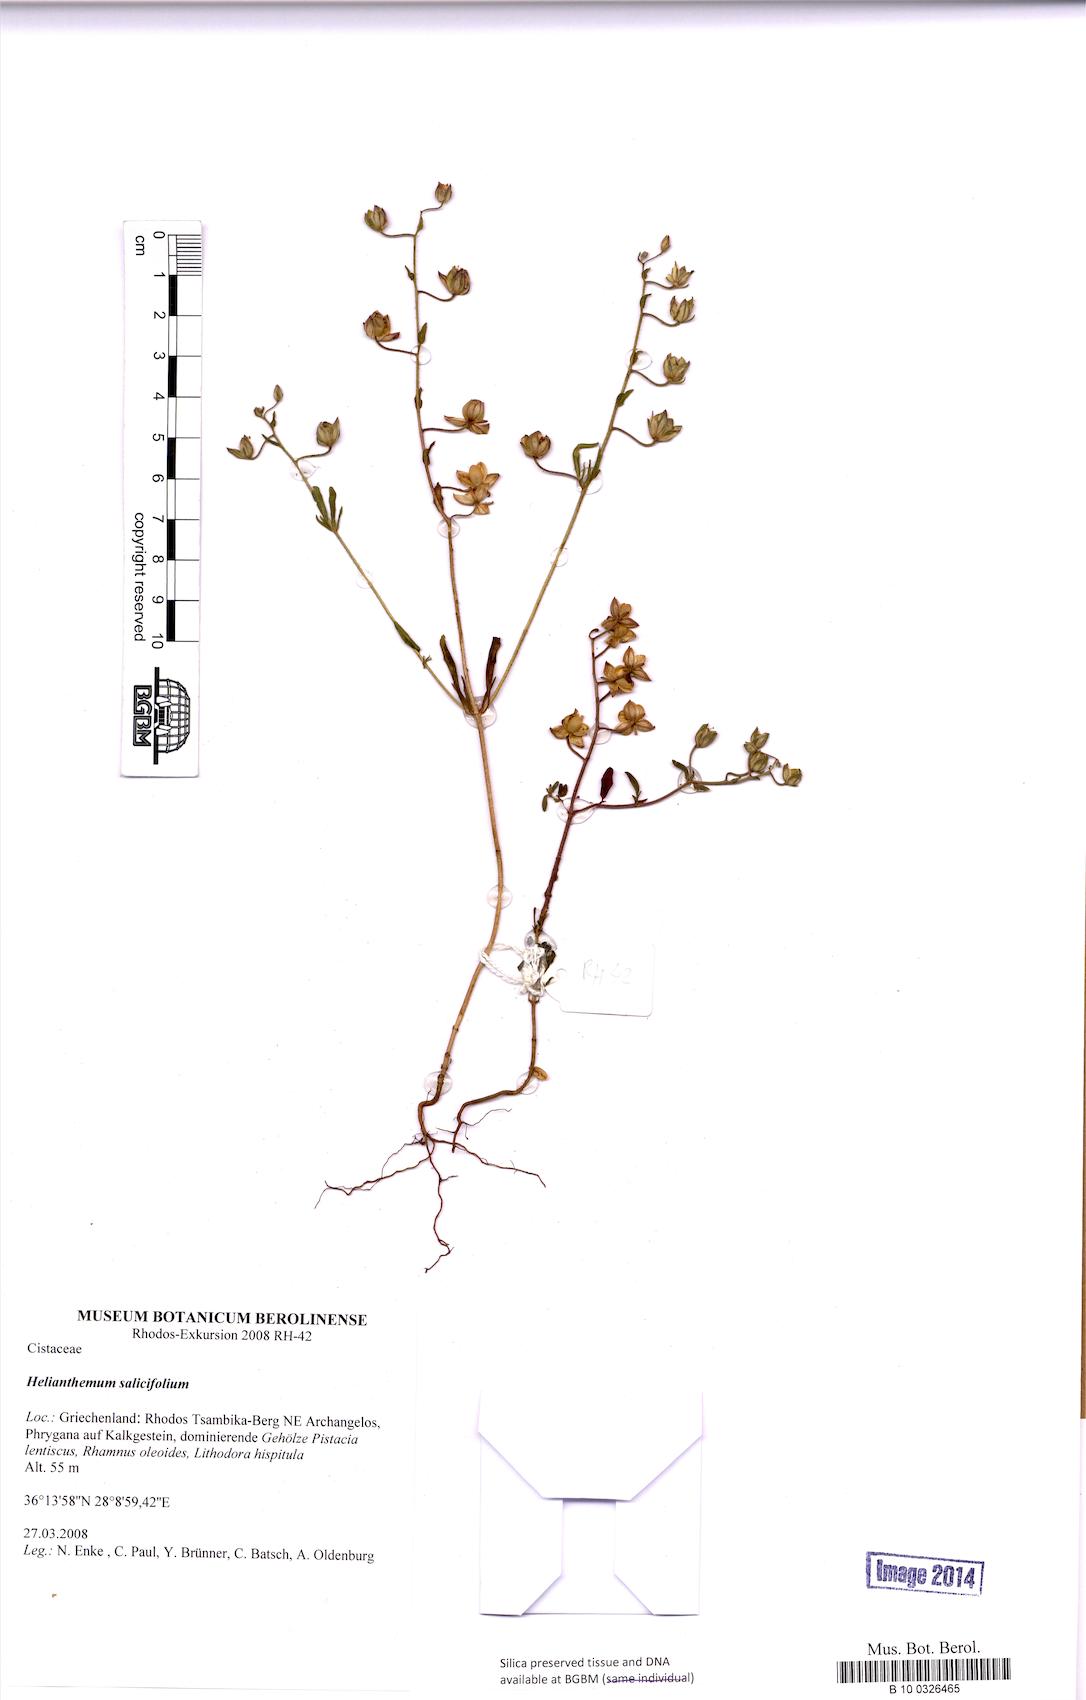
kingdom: Plantae
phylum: Tracheophyta
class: Magnoliopsida
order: Malvales
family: Cistaceae
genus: Helianthemum
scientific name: Helianthemum salicifolium
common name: Willowleaf frostweed
